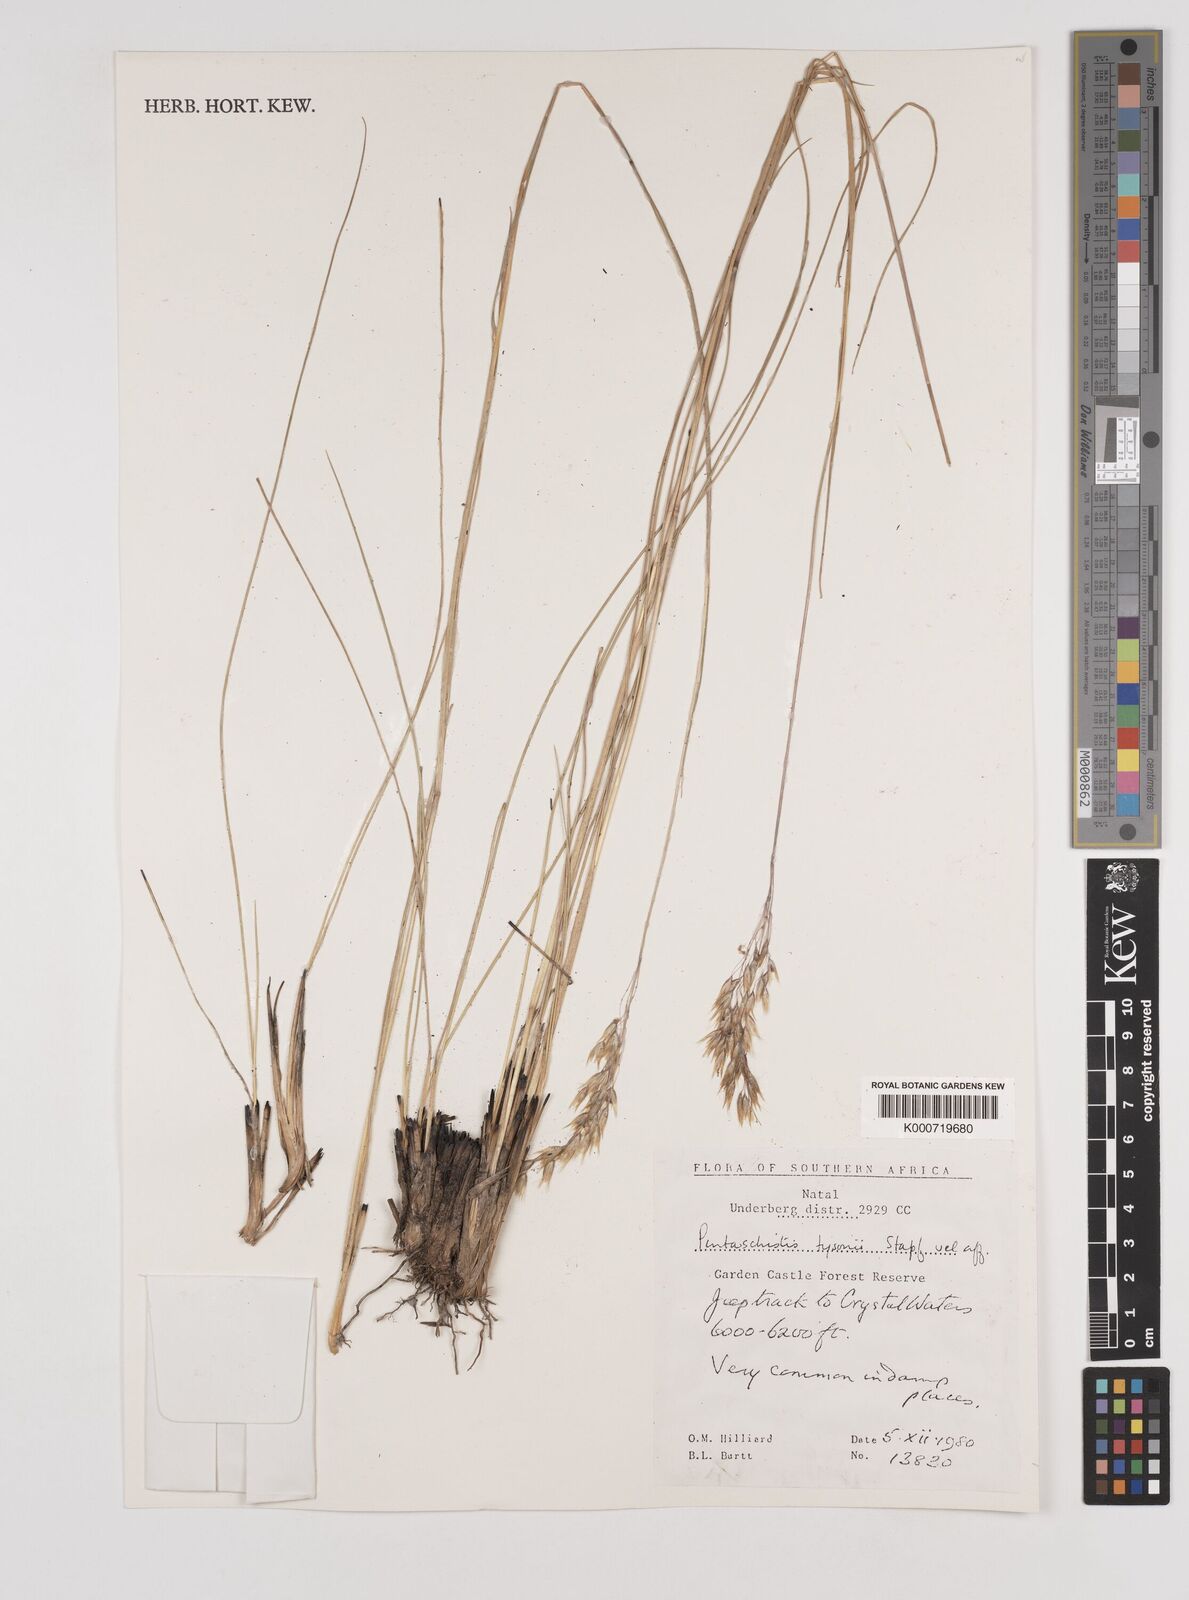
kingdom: Plantae
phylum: Tracheophyta
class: Liliopsida
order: Poales
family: Poaceae
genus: Pentameris
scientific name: Pentameris tysonii
